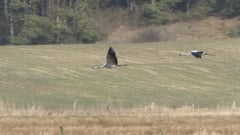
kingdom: Animalia
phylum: Chordata
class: Aves
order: Gruiformes
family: Gruidae
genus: Grus
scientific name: Grus grus
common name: Common crane
